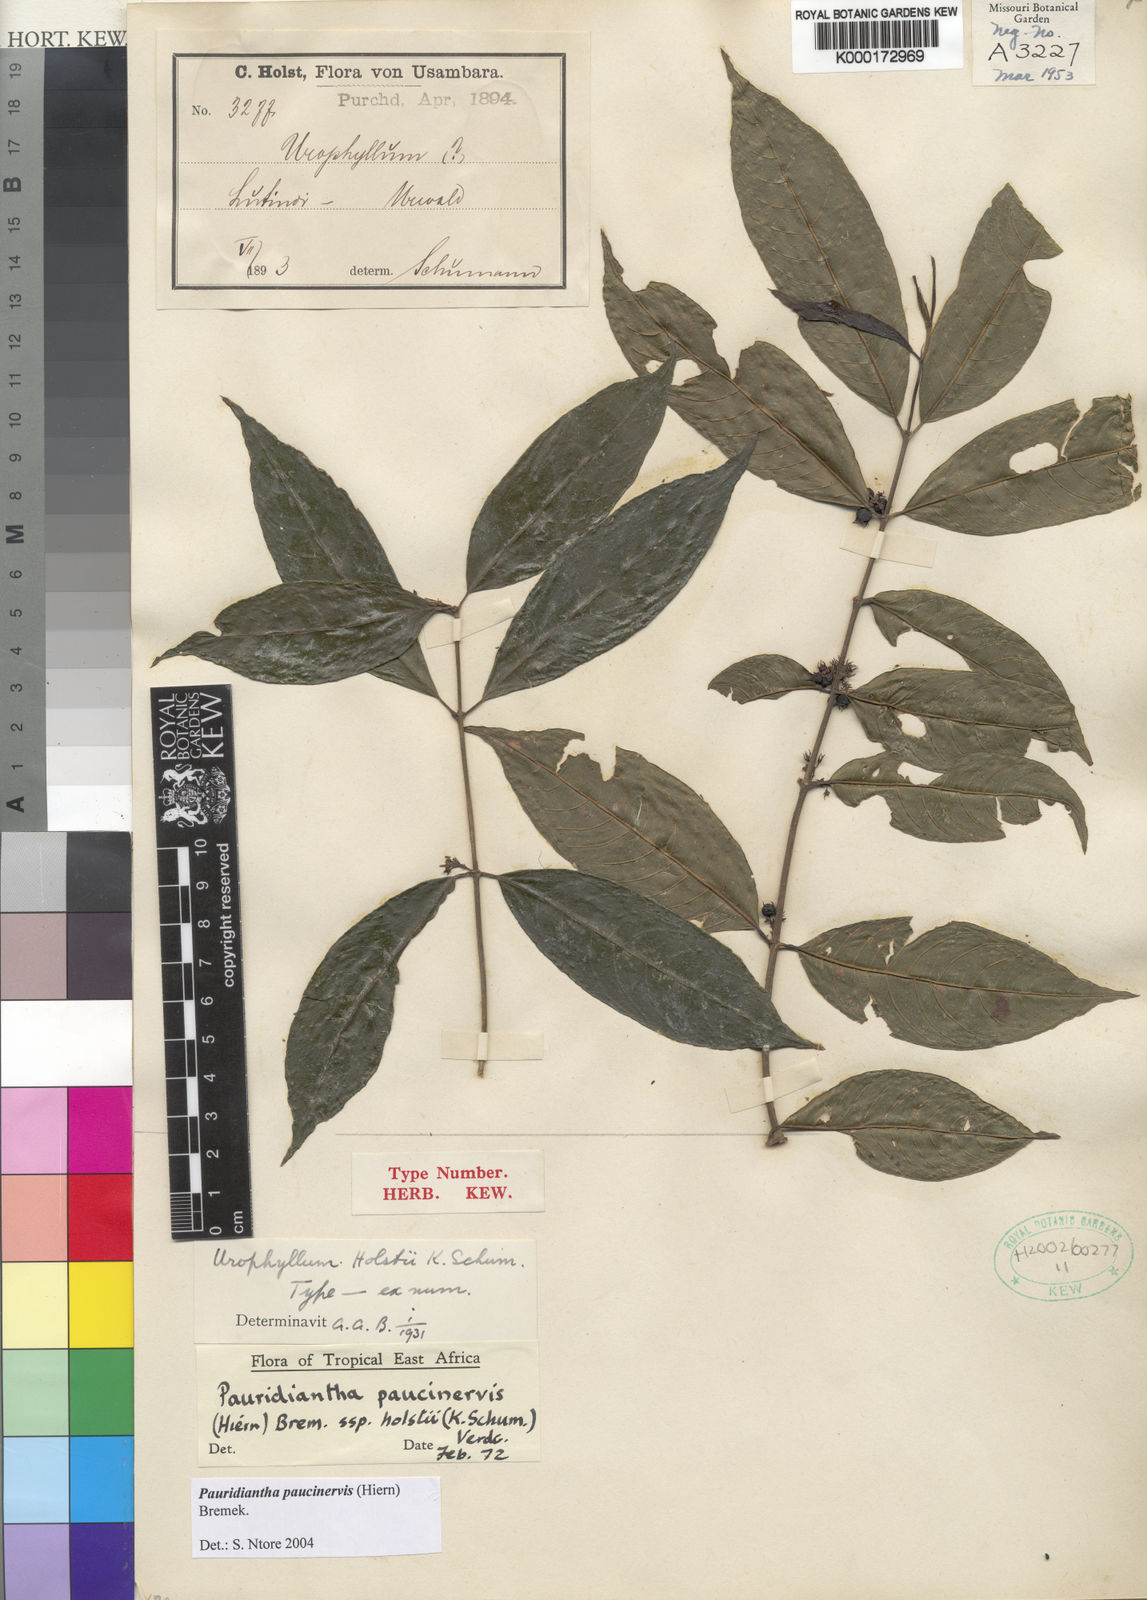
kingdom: Plantae
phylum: Tracheophyta
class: Magnoliopsida
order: Gentianales
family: Rubiaceae
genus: Pauridiantha
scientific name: Pauridiantha paucinervis
